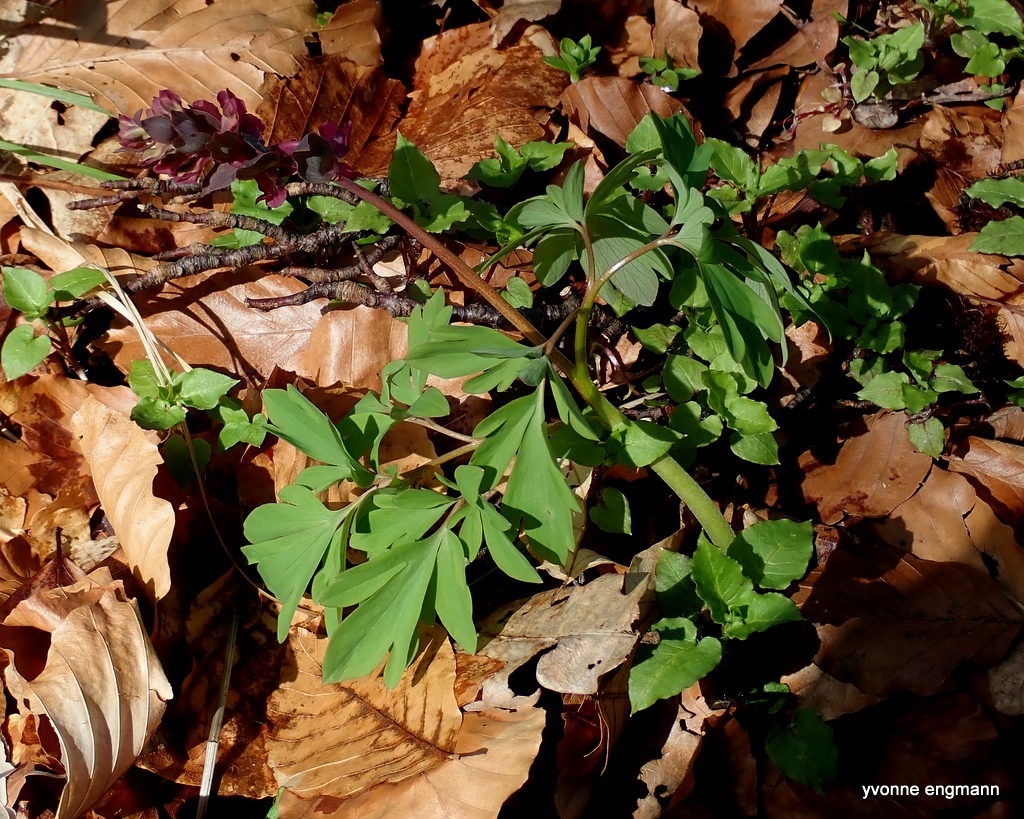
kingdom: Plantae
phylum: Tracheophyta
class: Magnoliopsida
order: Ranunculales
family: Papaveraceae
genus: Corydalis
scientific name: Corydalis cava
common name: Hulrodet lærkespore
